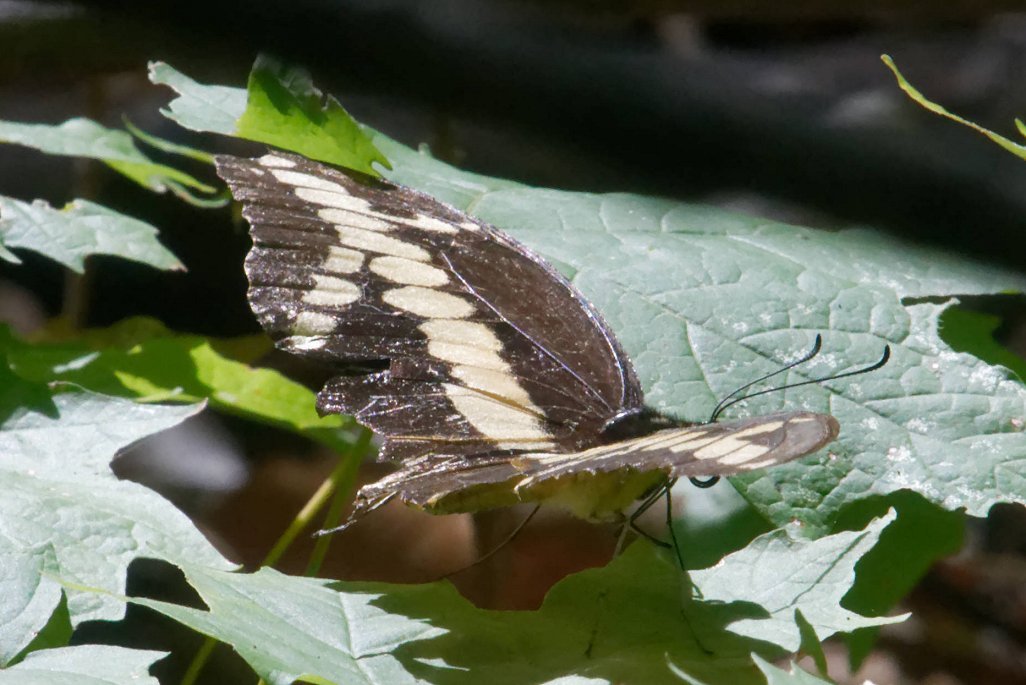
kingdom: Animalia
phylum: Arthropoda
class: Insecta
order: Lepidoptera
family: Papilionidae
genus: Papilio
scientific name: Papilio cresphontes
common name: Eastern Giant Swallowtail
